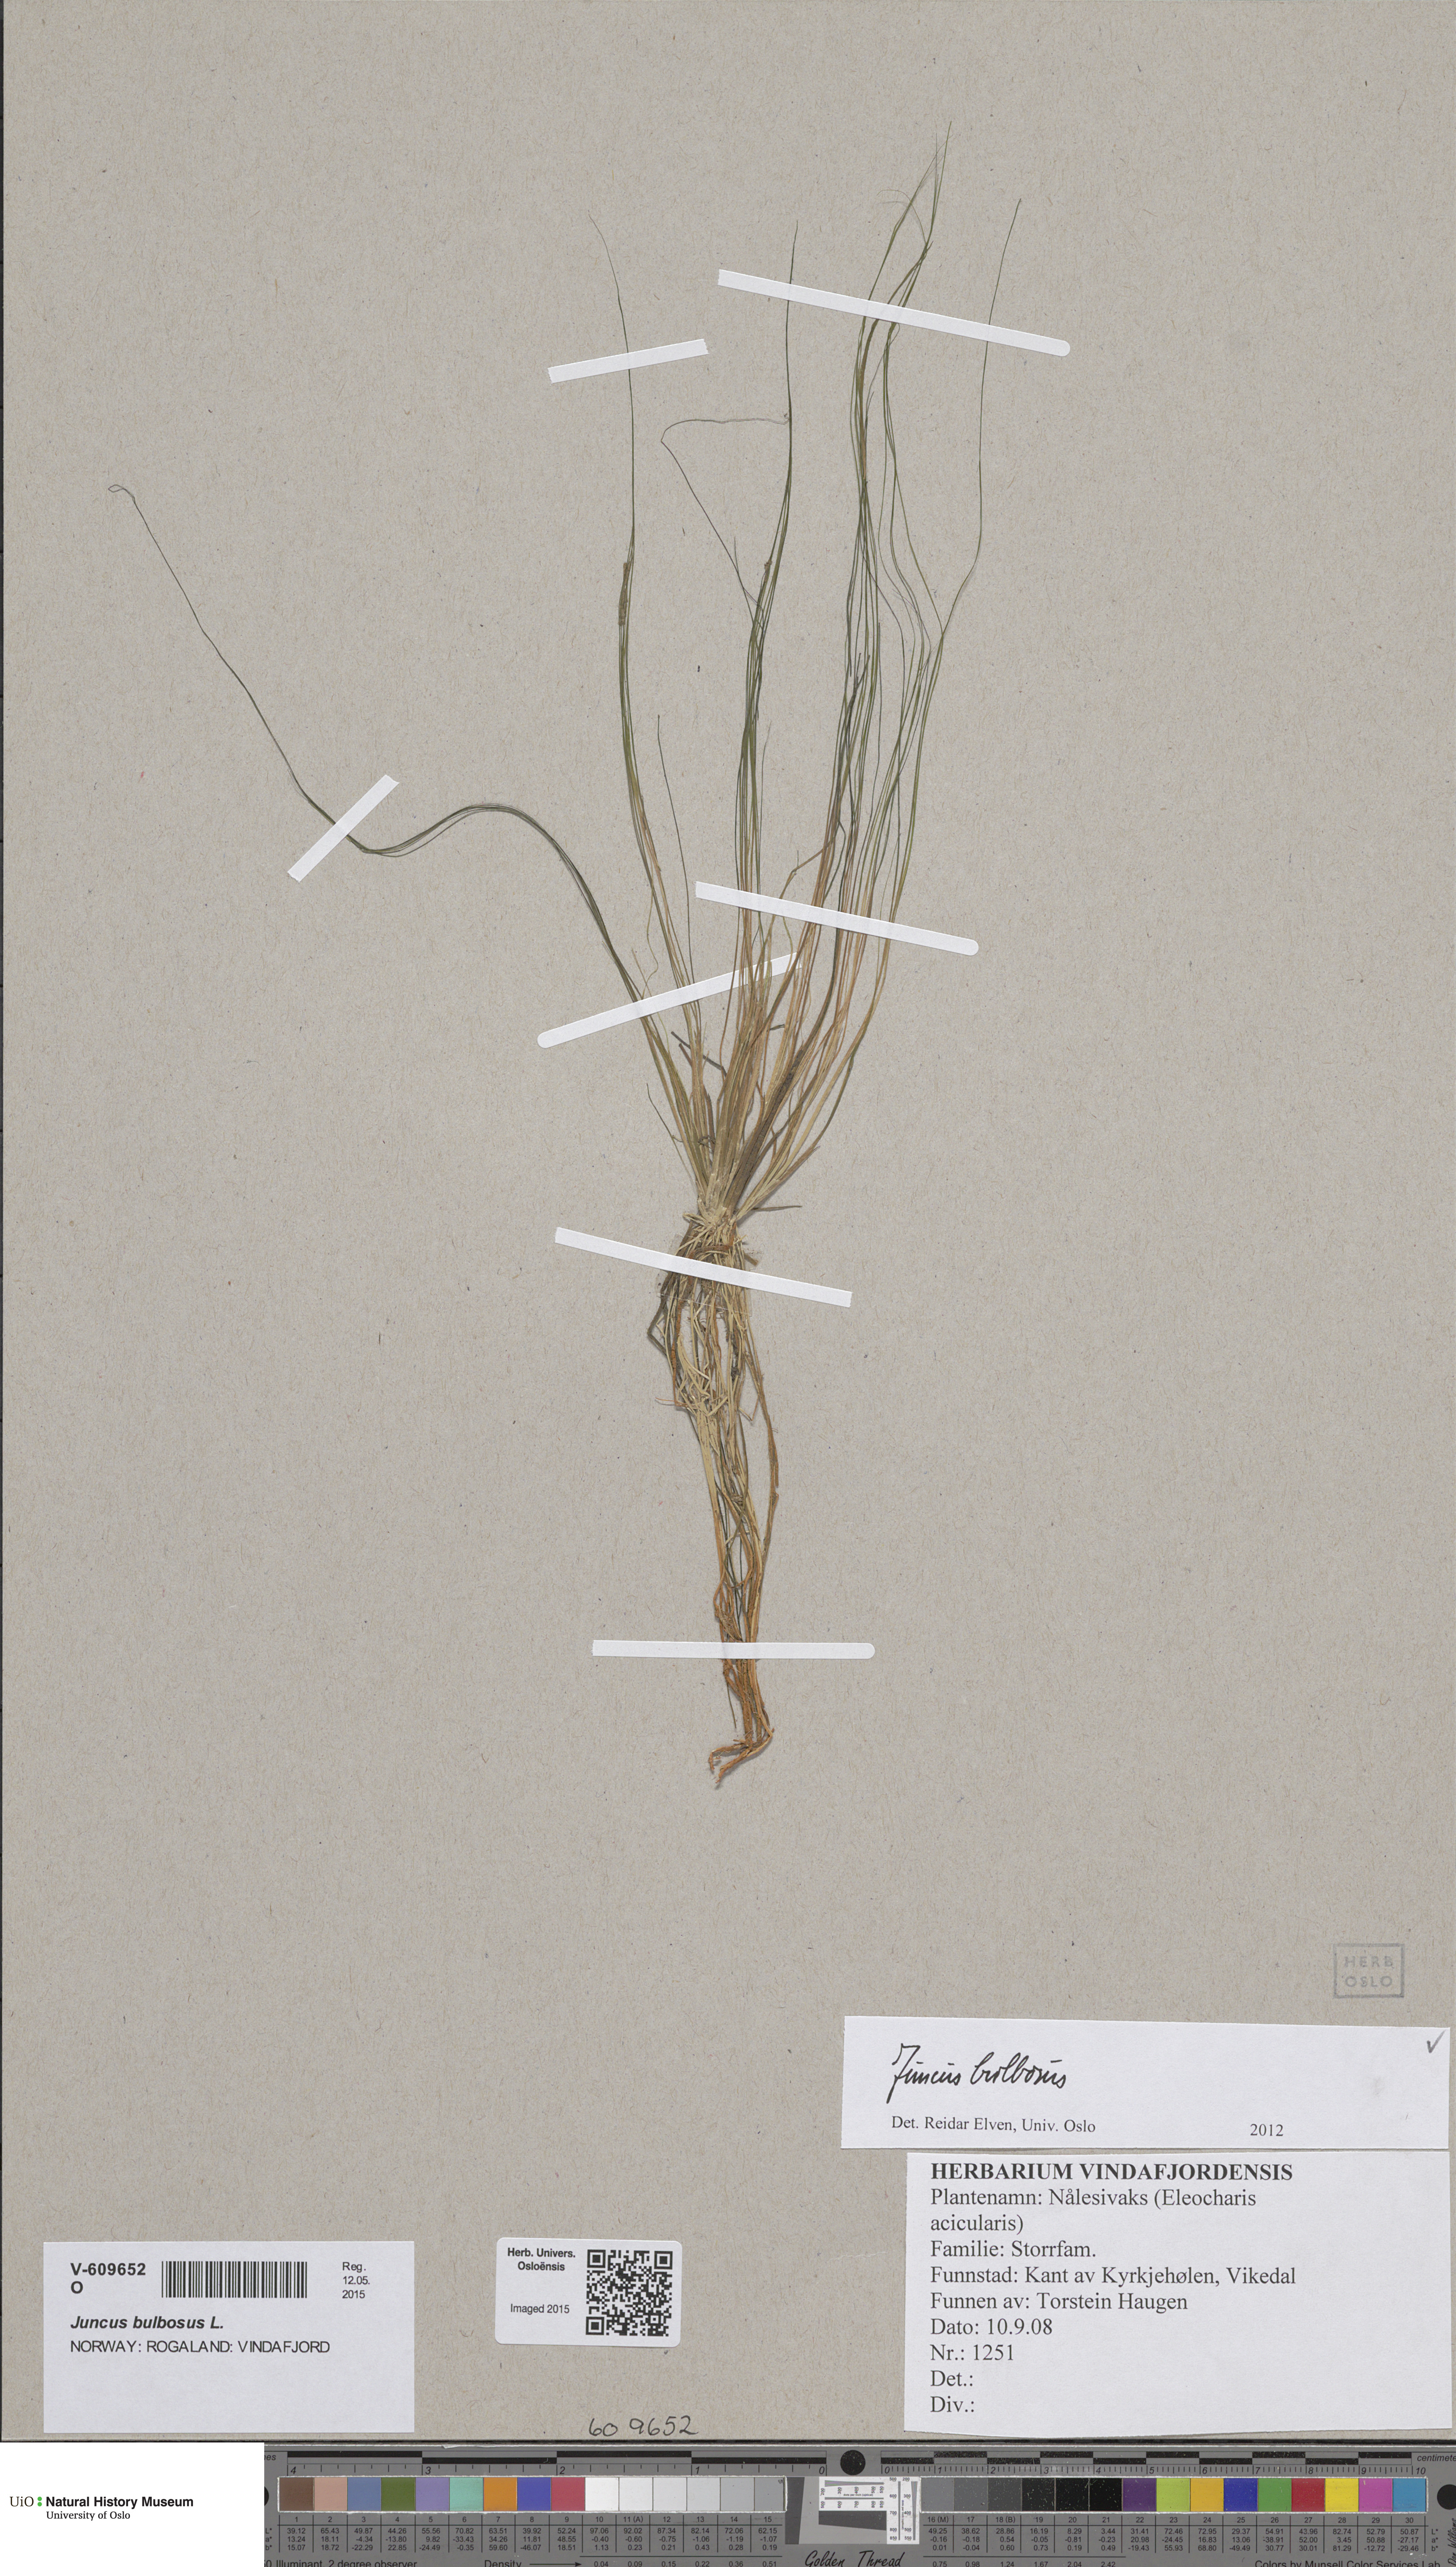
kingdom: Plantae
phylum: Tracheophyta
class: Liliopsida
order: Poales
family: Juncaceae
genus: Juncus
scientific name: Juncus bulbosus
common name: Bulbous rush
